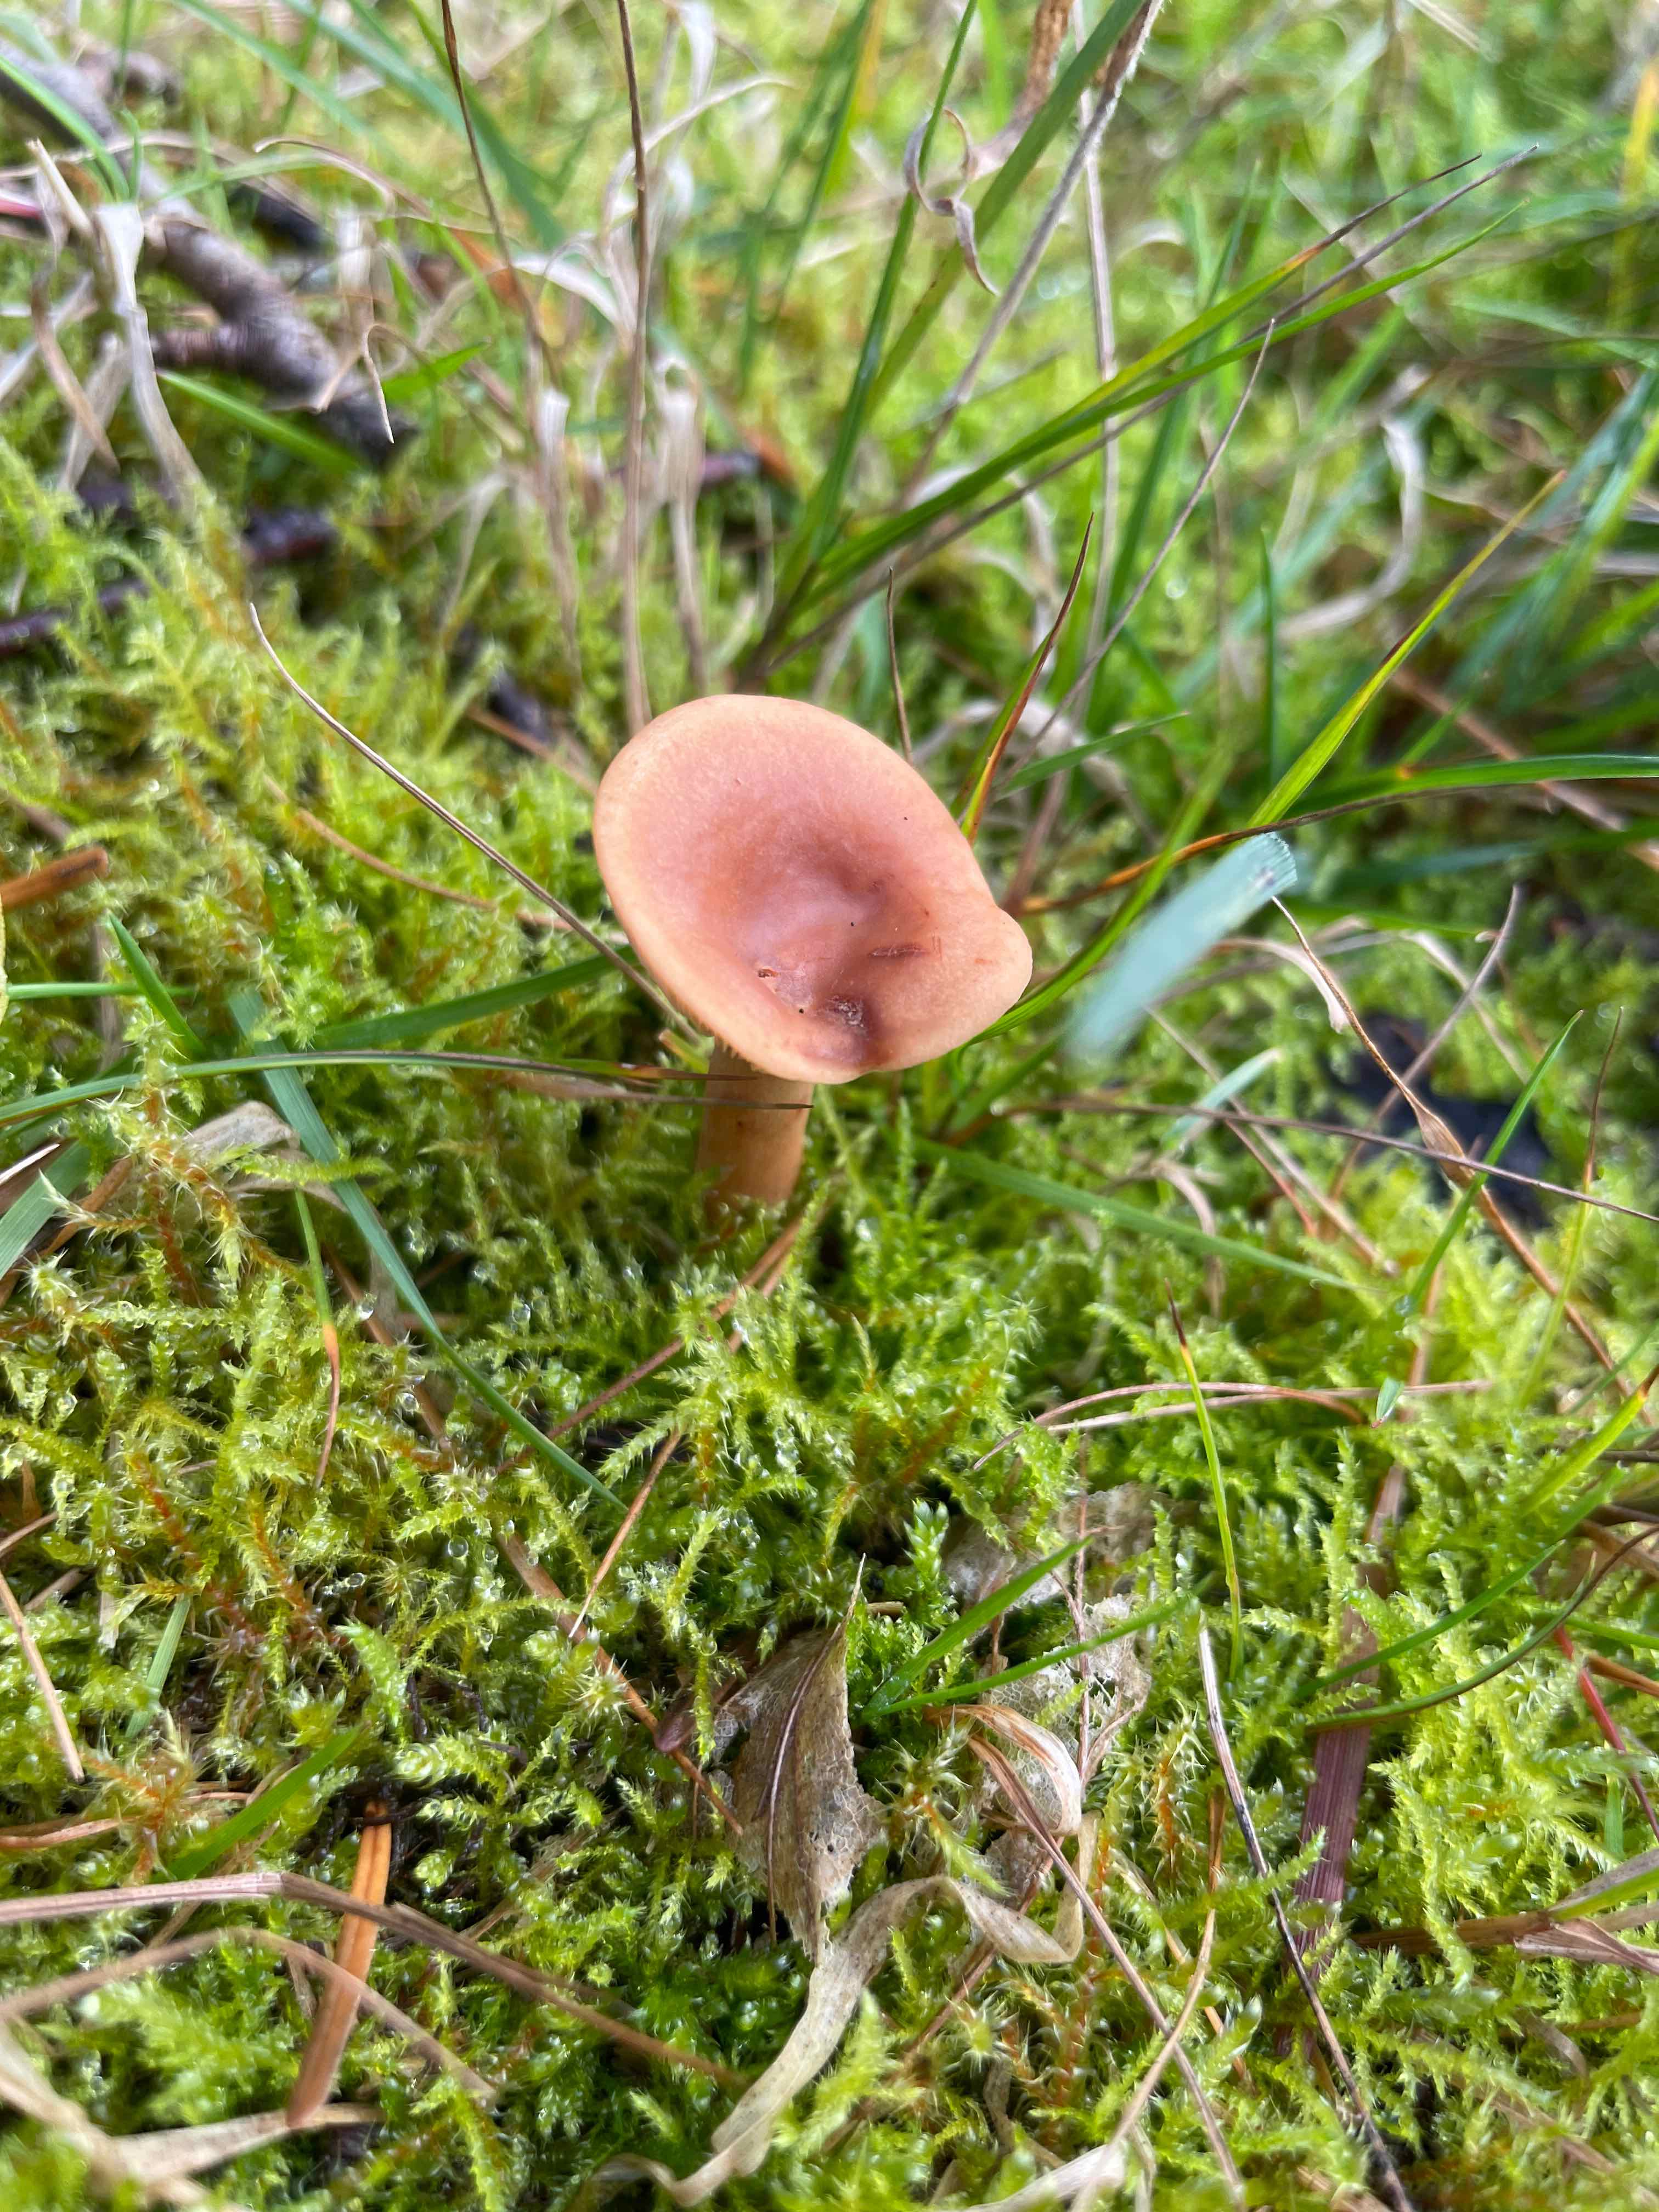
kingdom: Fungi
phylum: Basidiomycota
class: Agaricomycetes
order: Russulales
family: Russulaceae
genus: Lactarius
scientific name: Lactarius tabidus
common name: rynket mælkehat
